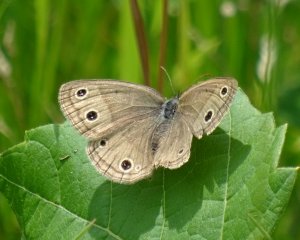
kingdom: Animalia
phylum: Arthropoda
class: Insecta
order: Lepidoptera
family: Nymphalidae
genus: Euptychia
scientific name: Euptychia cymela
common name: Little Wood Satyr
